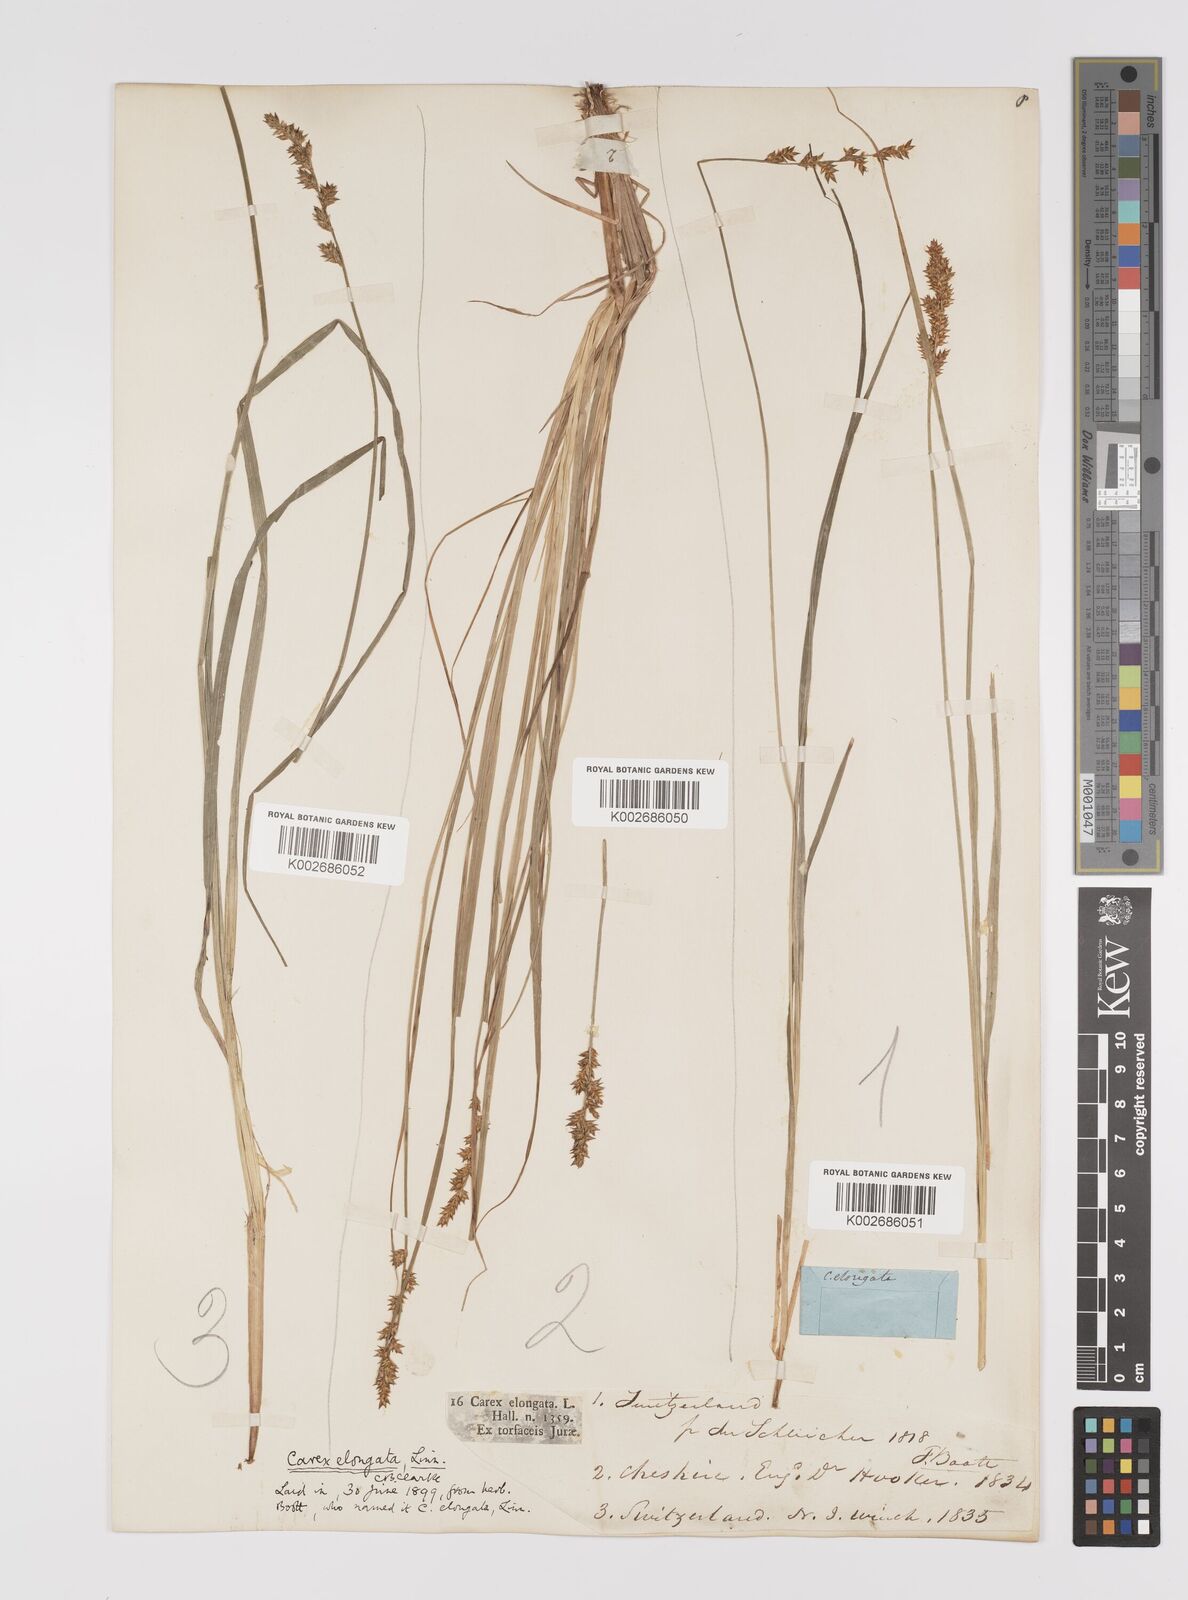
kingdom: Plantae
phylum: Tracheophyta
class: Liliopsida
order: Poales
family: Cyperaceae
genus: Carex
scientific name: Carex elongata
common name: Elongated sedge
